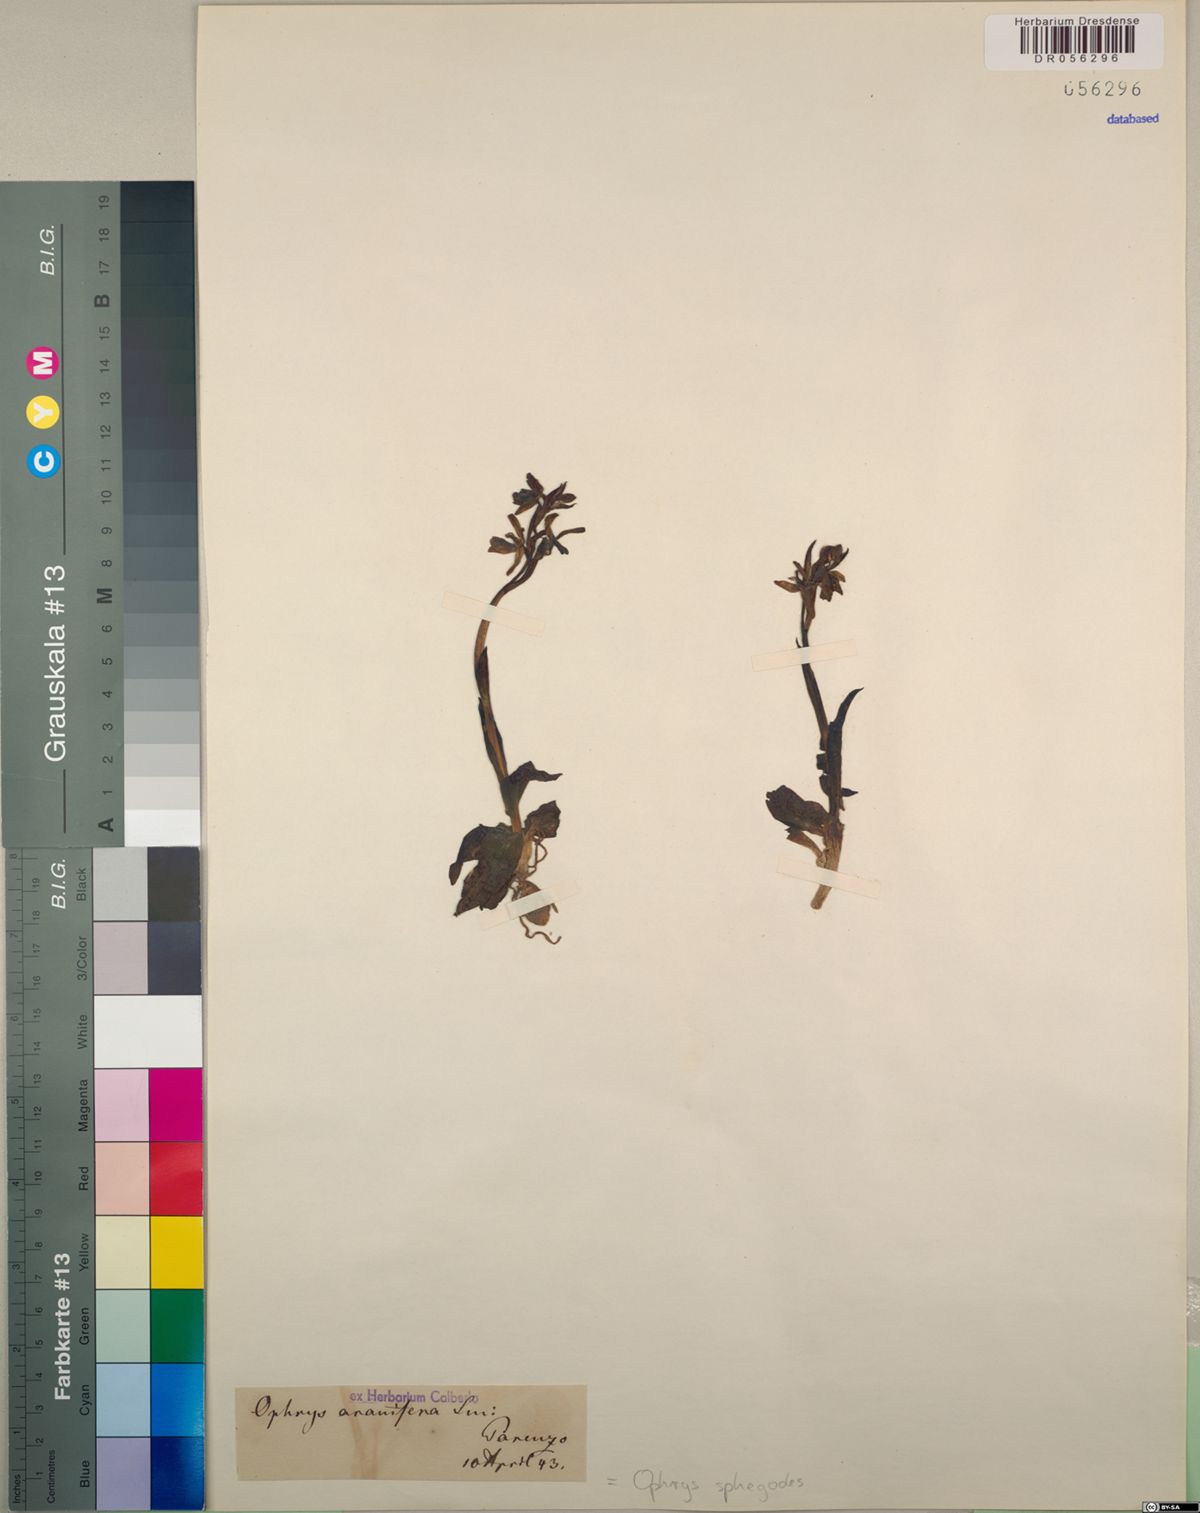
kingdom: Plantae
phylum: Tracheophyta
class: Liliopsida
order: Asparagales
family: Orchidaceae
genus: Ophrys
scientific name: Ophrys sphegodes
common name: Early spider-orchid
